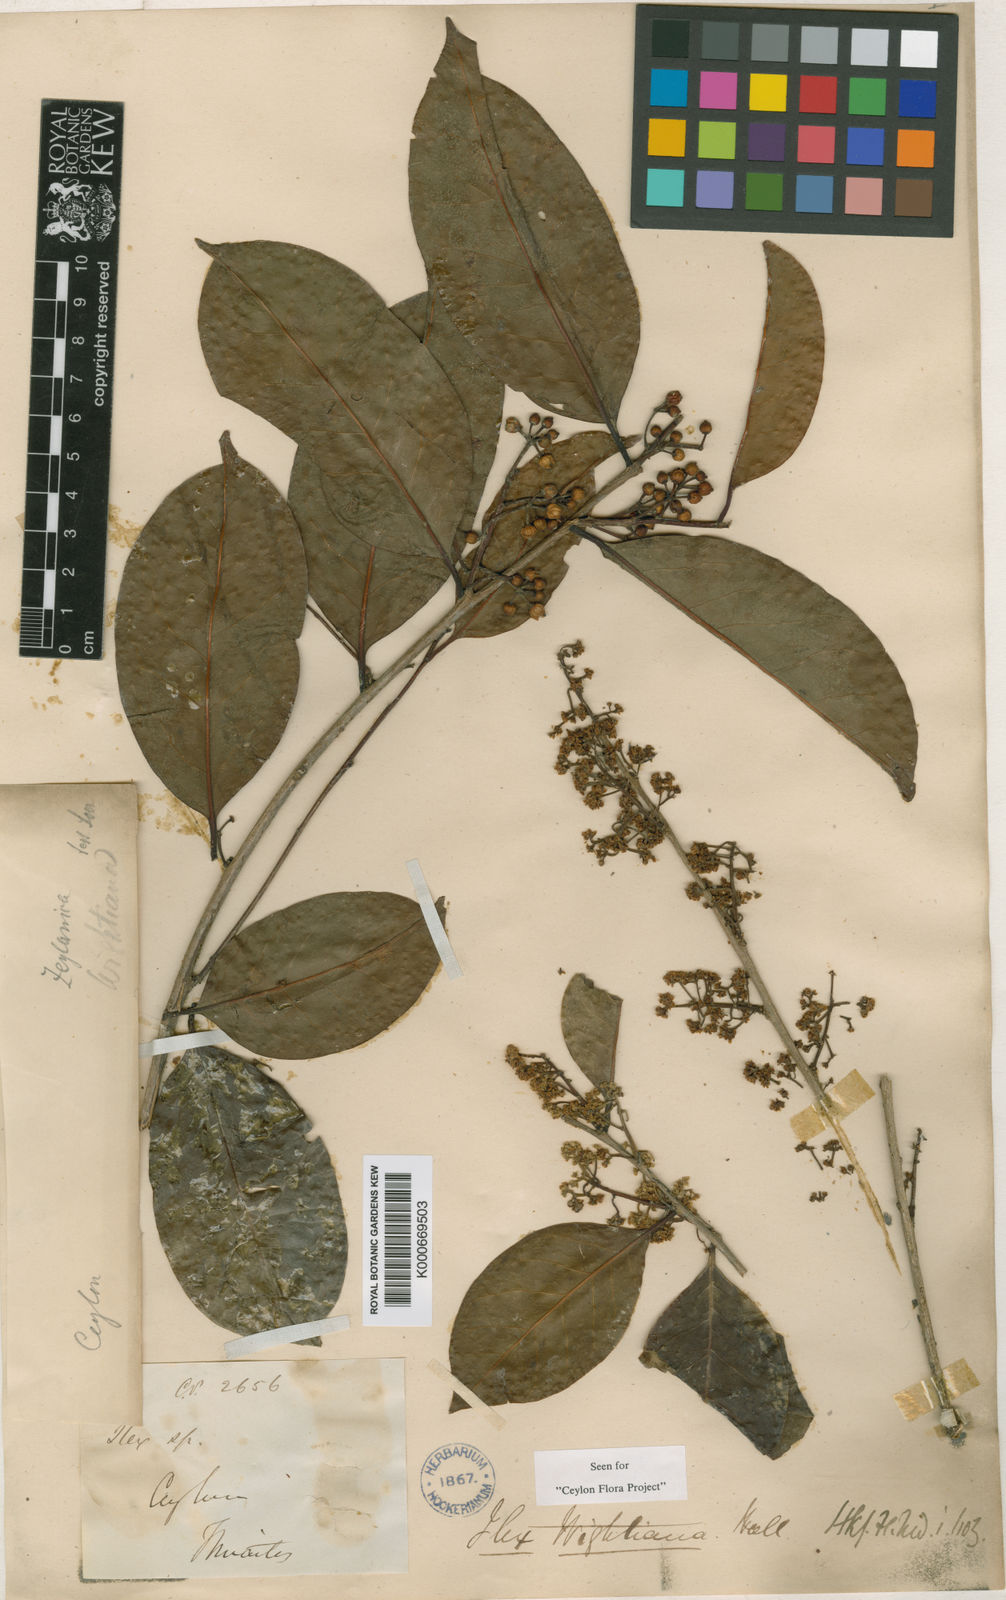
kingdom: Plantae
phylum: Tracheophyta
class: Magnoliopsida
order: Aquifoliales
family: Aquifoliaceae
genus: Ilex
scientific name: Ilex zeylanica
